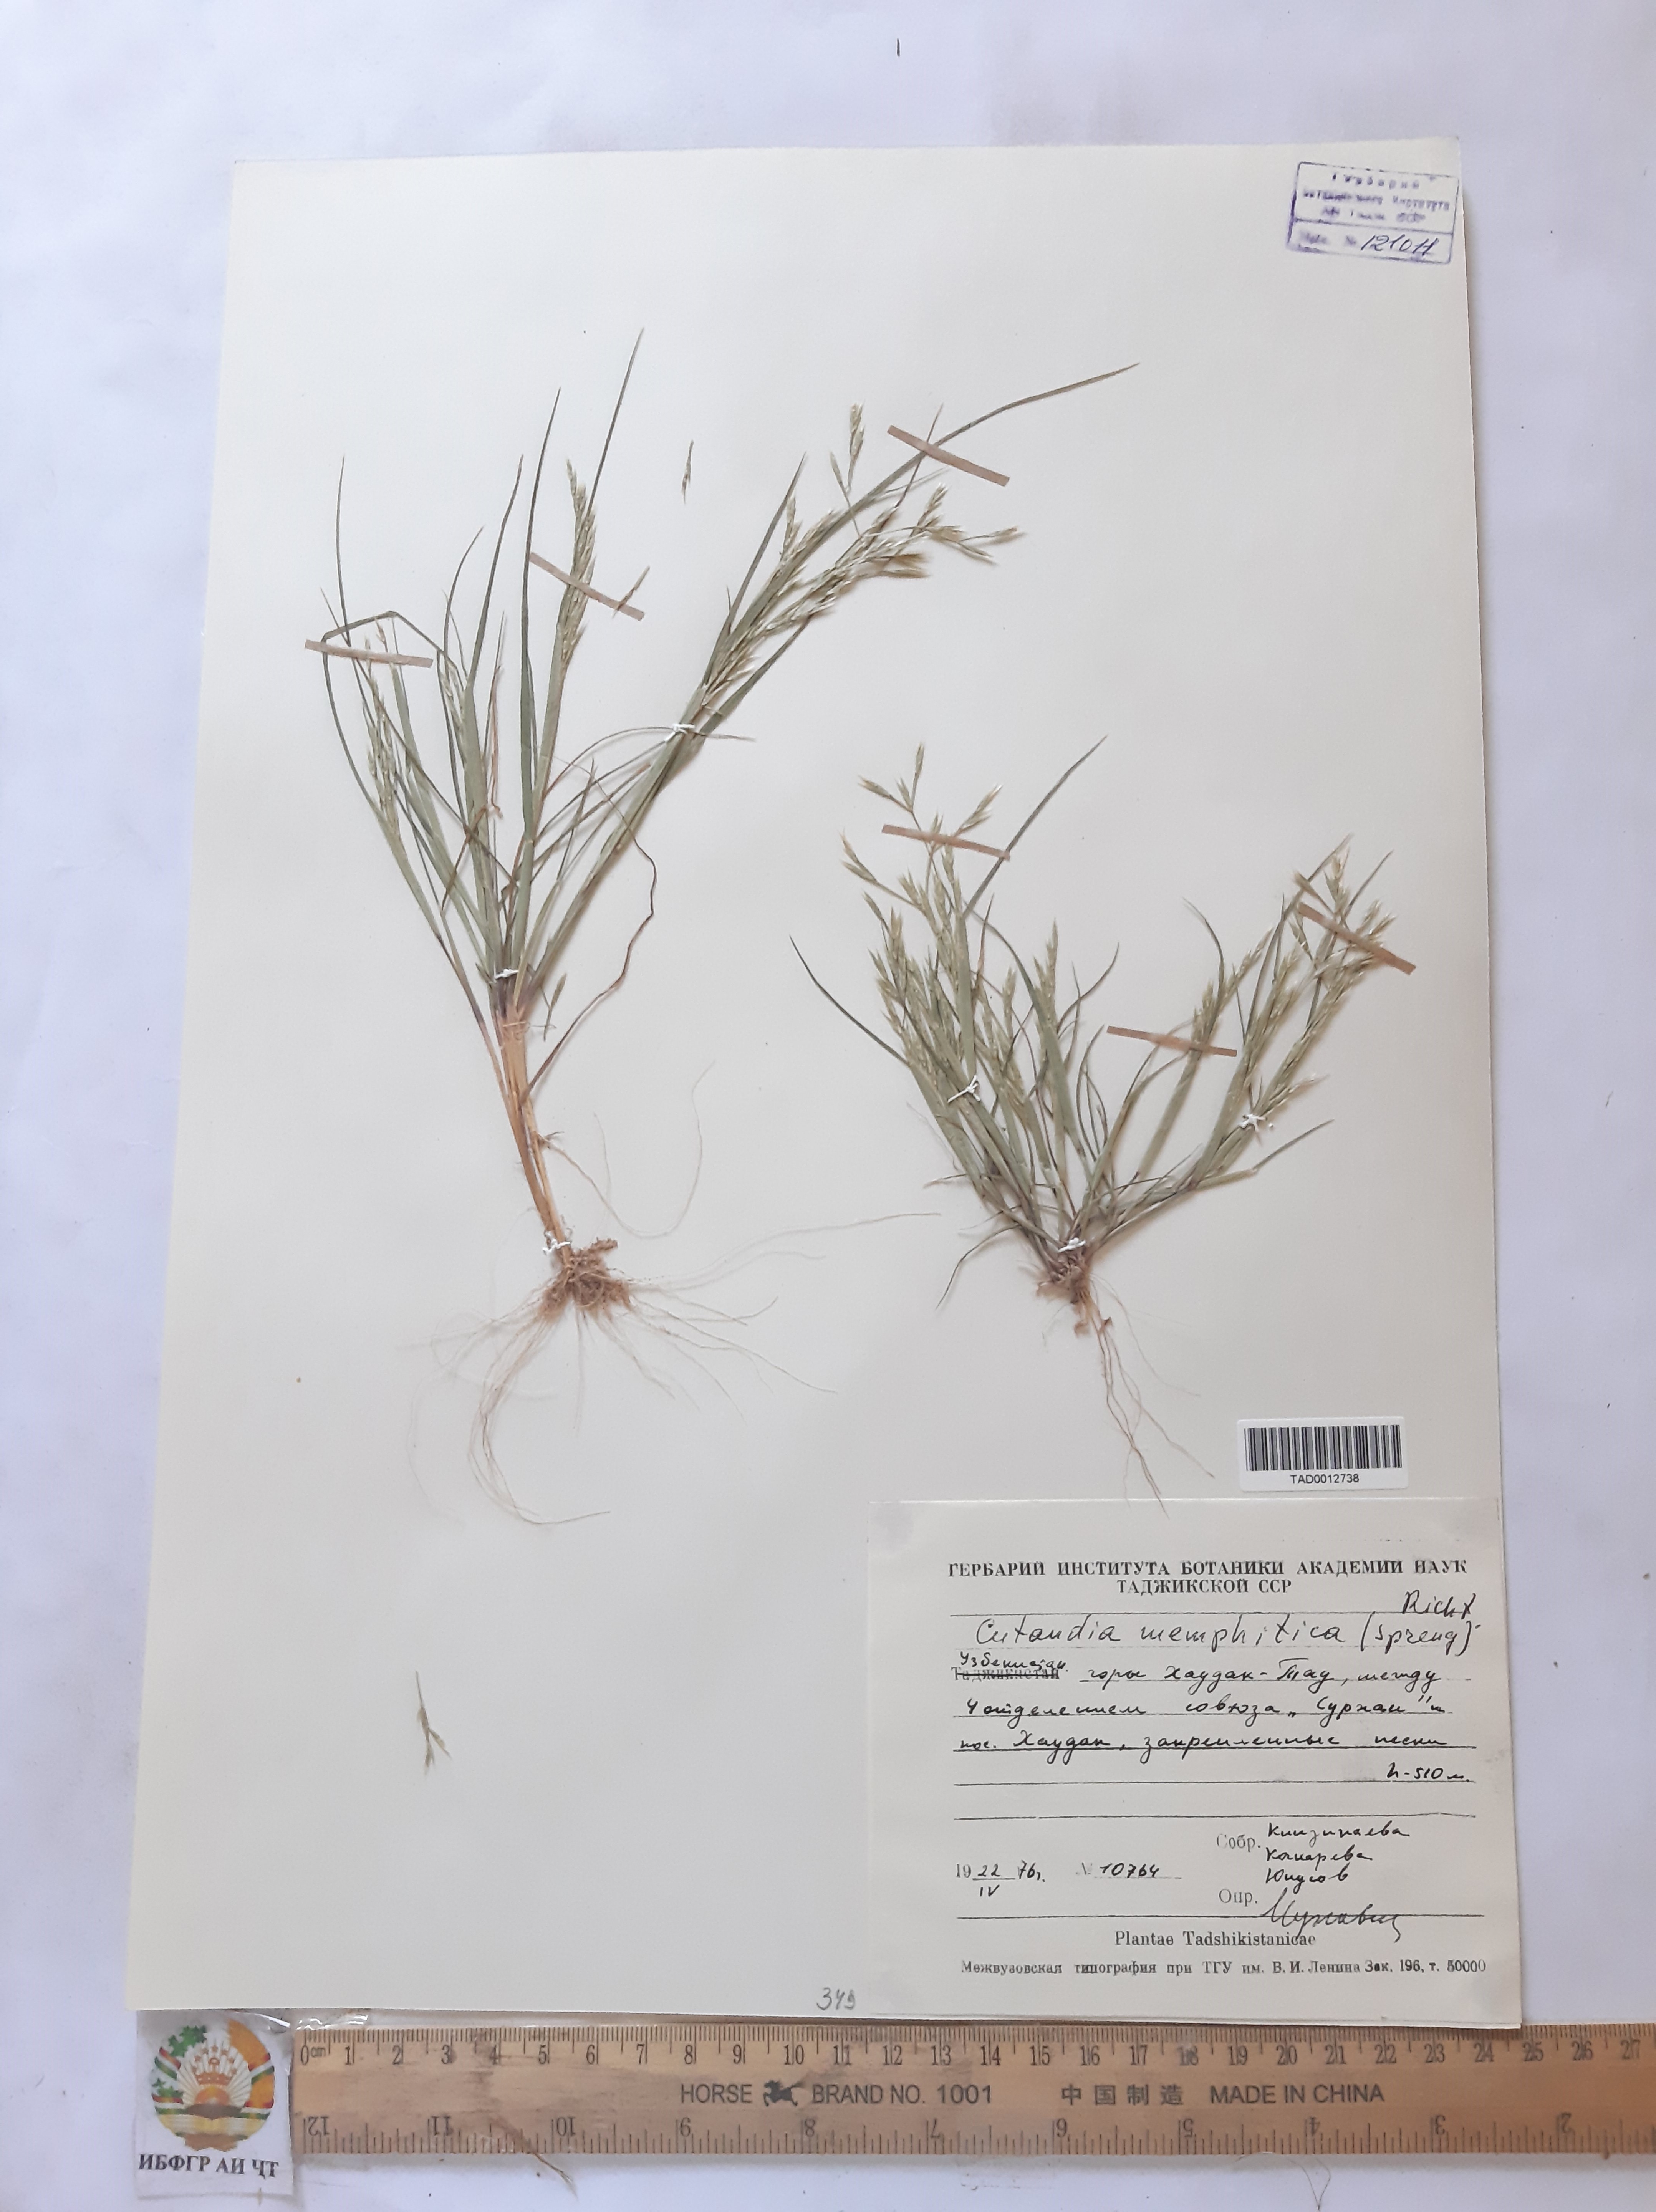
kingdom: Plantae
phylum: Tracheophyta
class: Liliopsida
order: Poales
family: Poaceae
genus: Cutandia
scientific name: Cutandia memphitica
